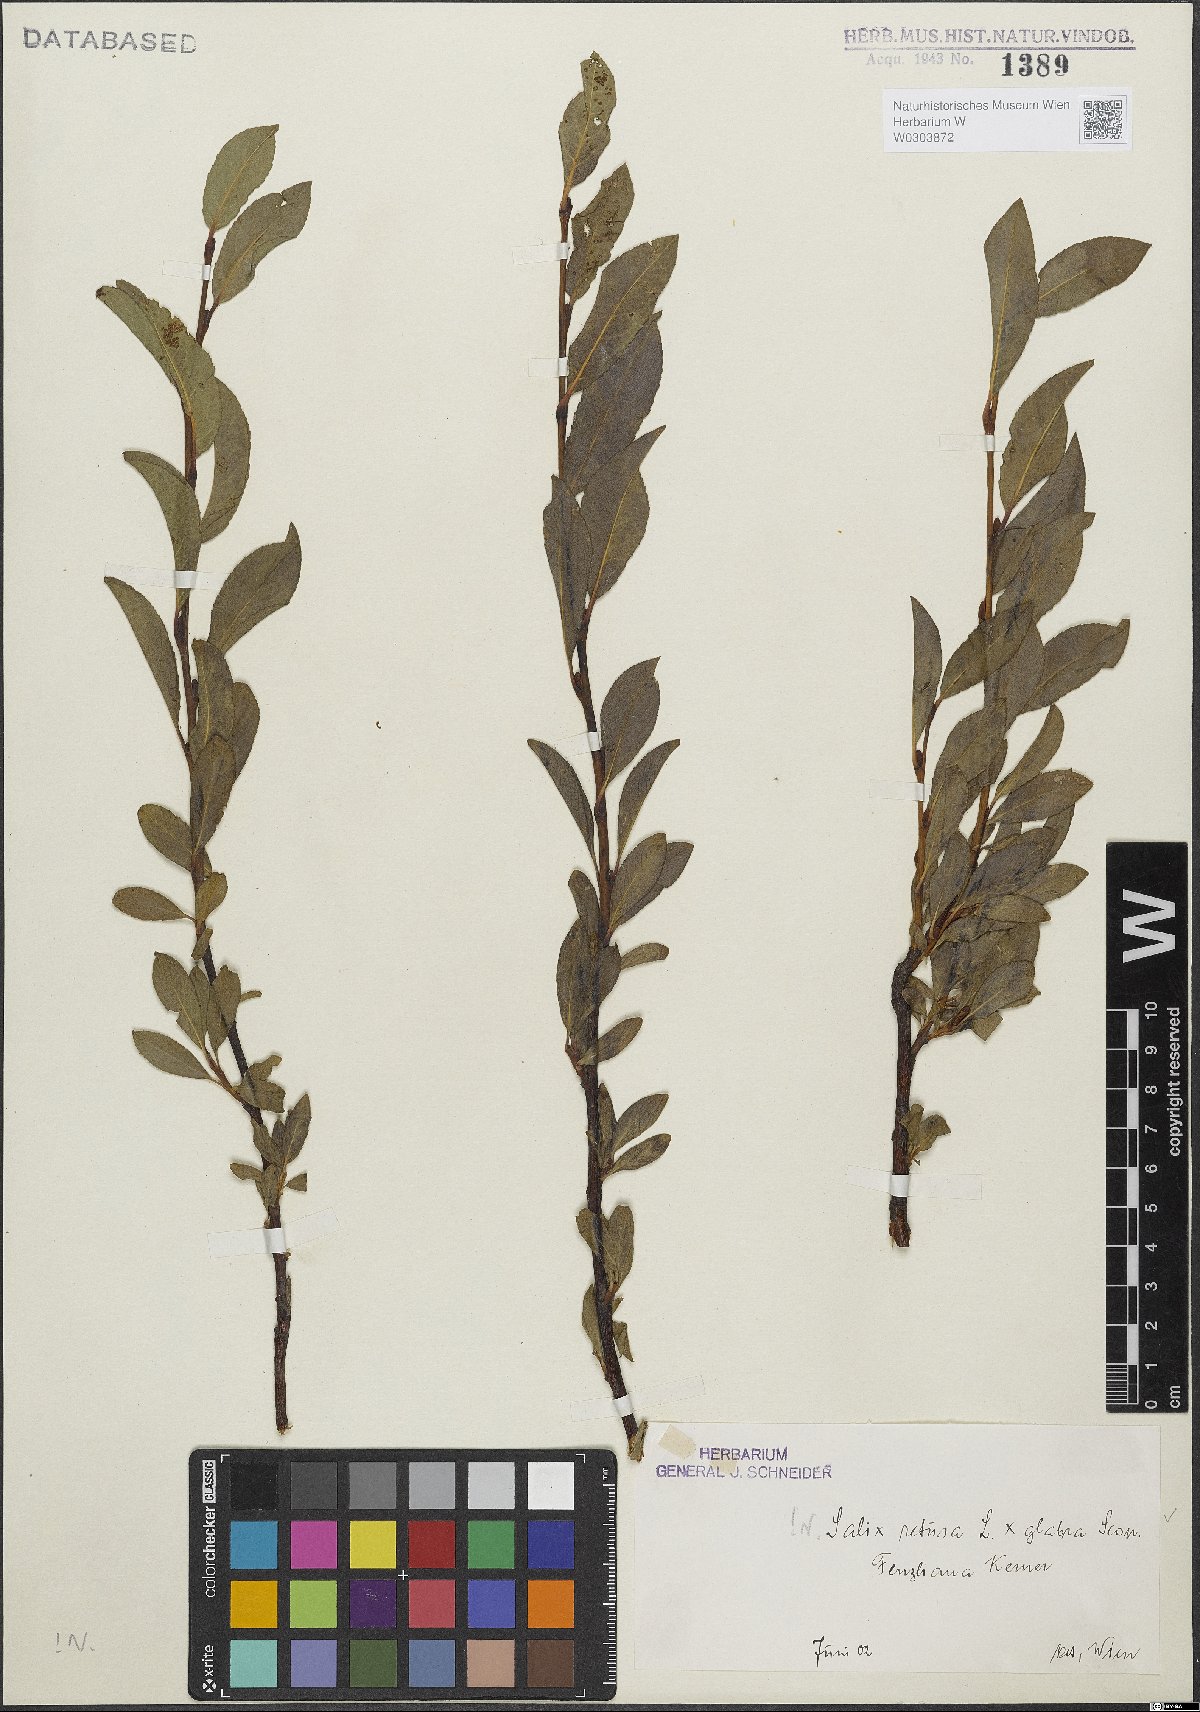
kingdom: Plantae
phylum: Tracheophyta
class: Magnoliopsida
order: Malpighiales
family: Salicaceae
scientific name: Salicaceae
